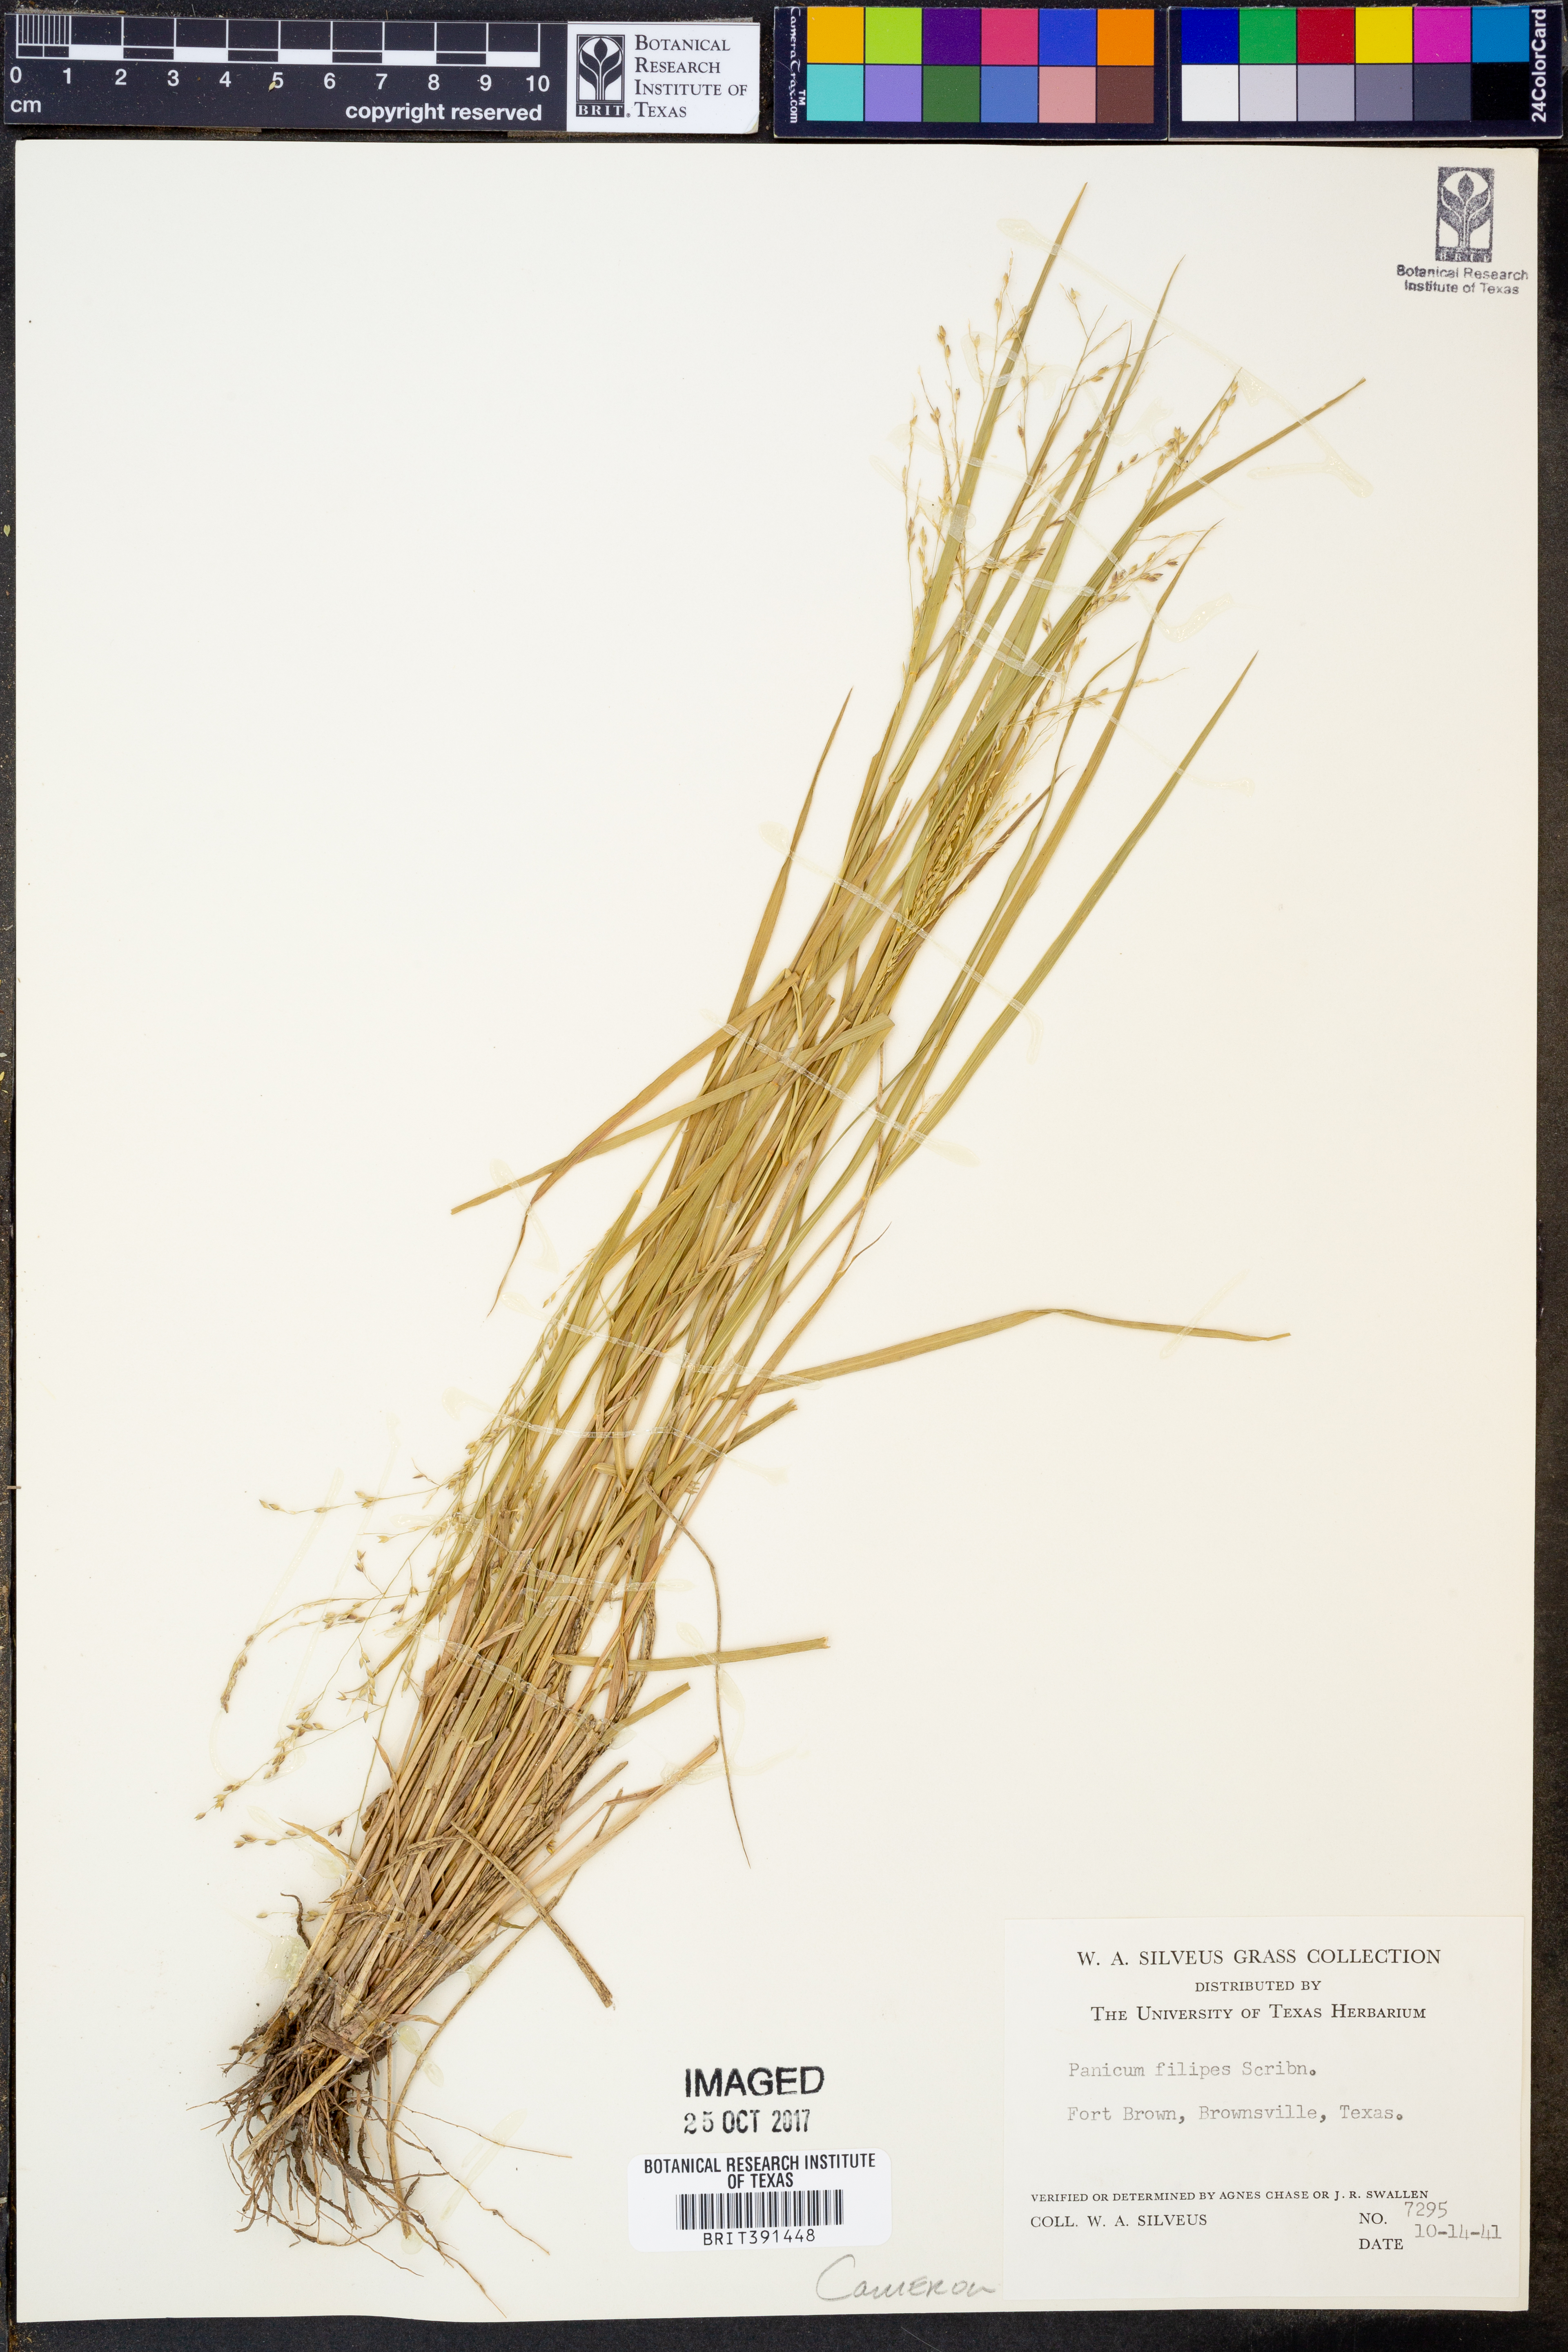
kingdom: Plantae
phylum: Tracheophyta
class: Liliopsida
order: Poales
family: Poaceae
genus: Panicum
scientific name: Panicum hallii
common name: Hall's witchgrass
